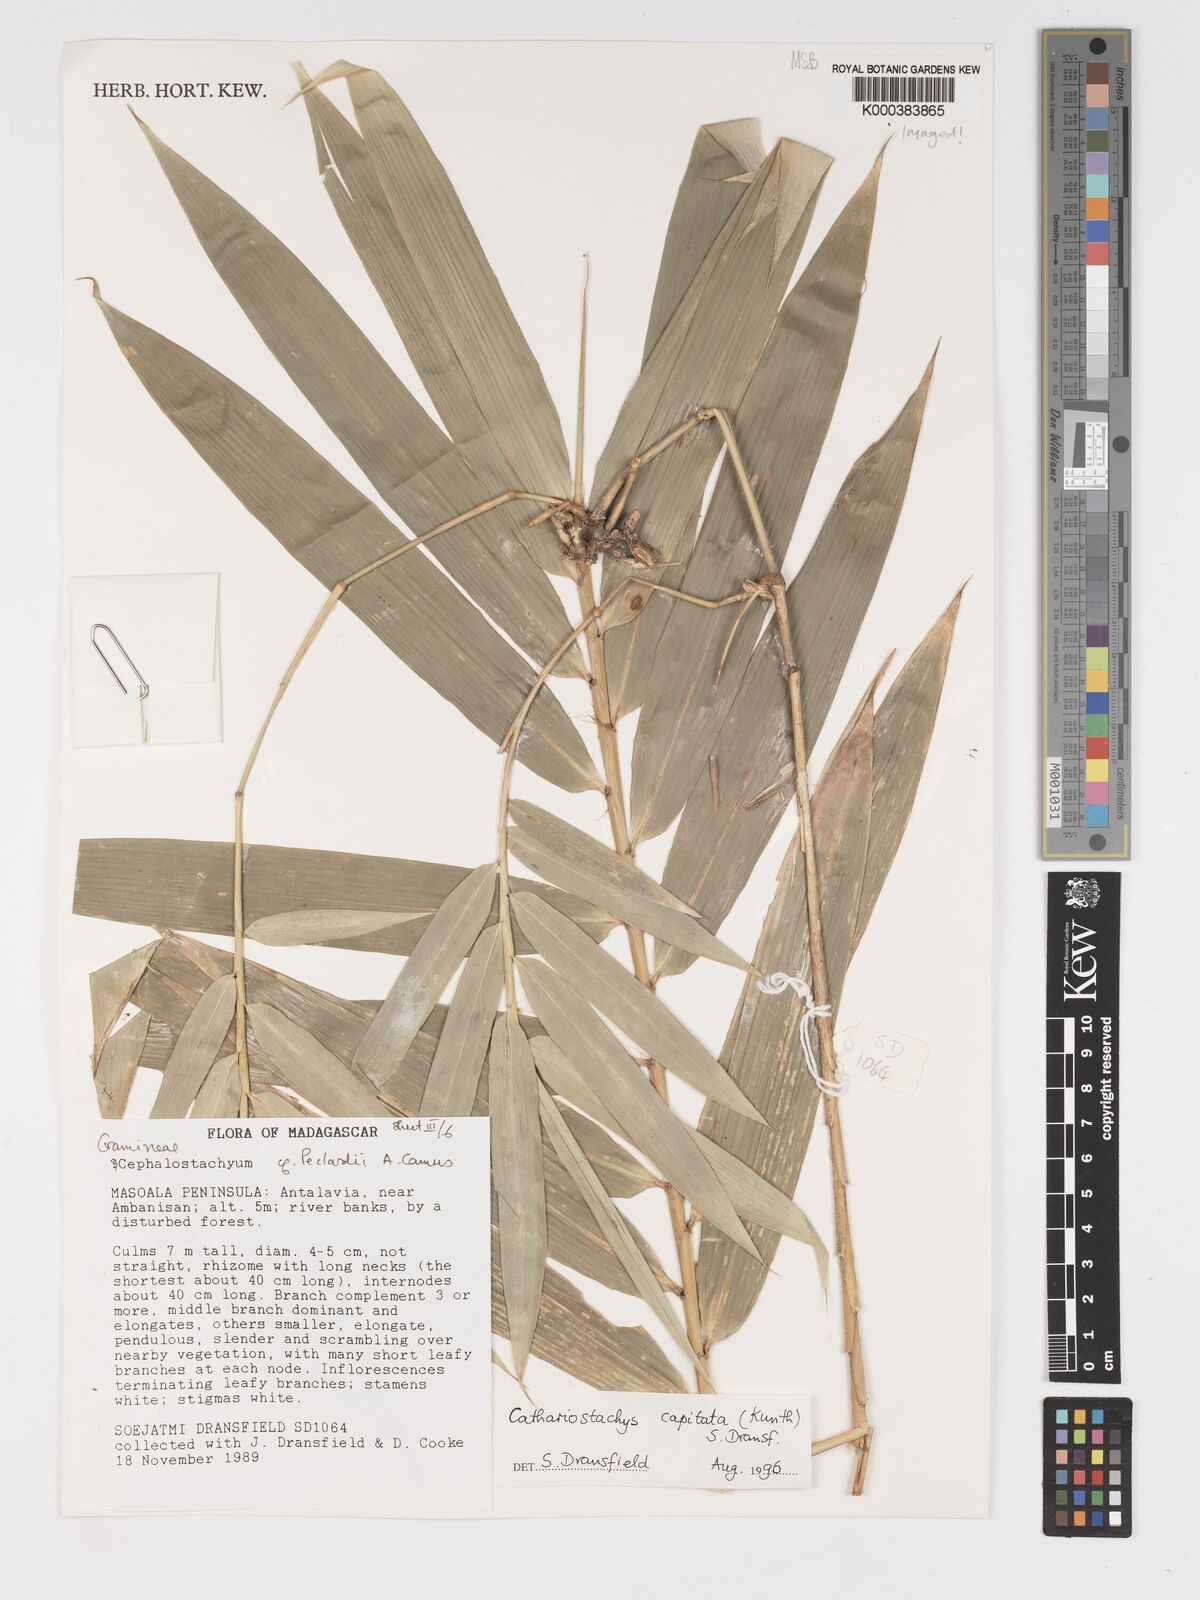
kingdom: Plantae
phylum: Tracheophyta
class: Liliopsida
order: Poales
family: Poaceae
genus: Cathariostachys
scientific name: Cathariostachys capitata
